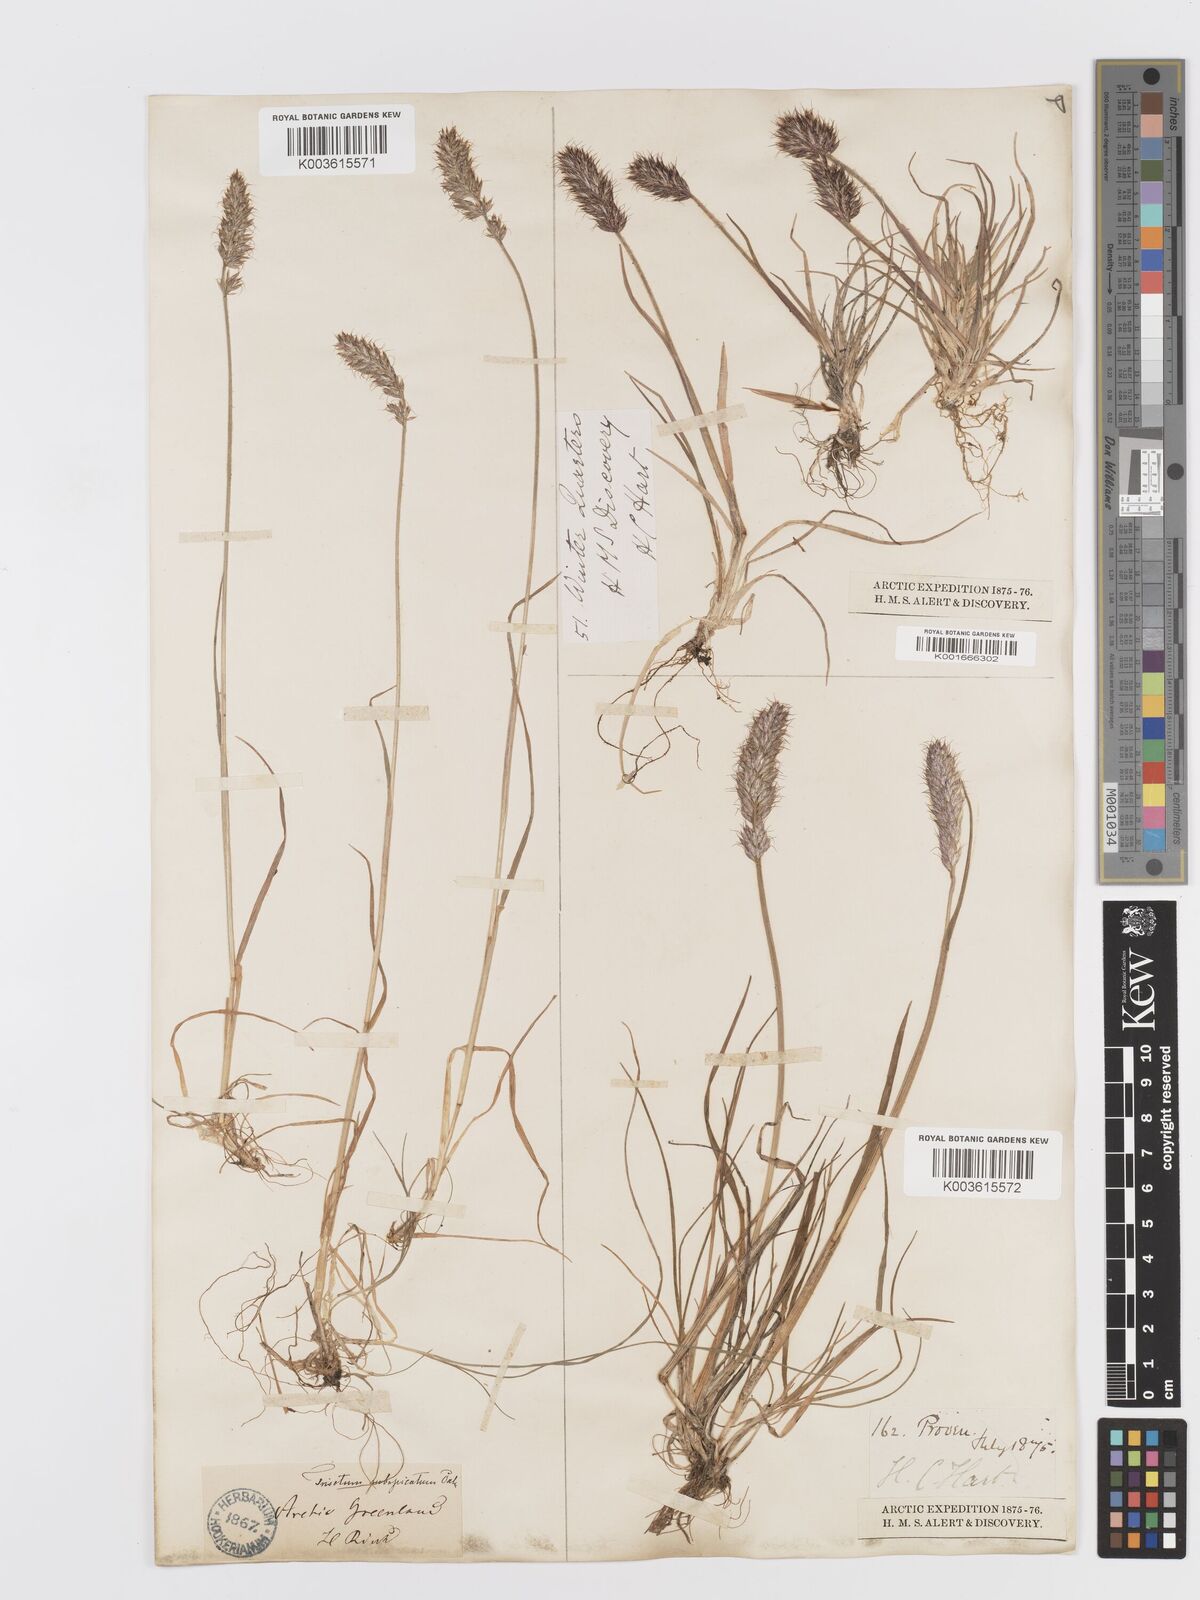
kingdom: Plantae
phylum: Tracheophyta
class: Liliopsida
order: Poales
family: Poaceae
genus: Koeleria
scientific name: Koeleria spicata
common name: Mountain trisetum
